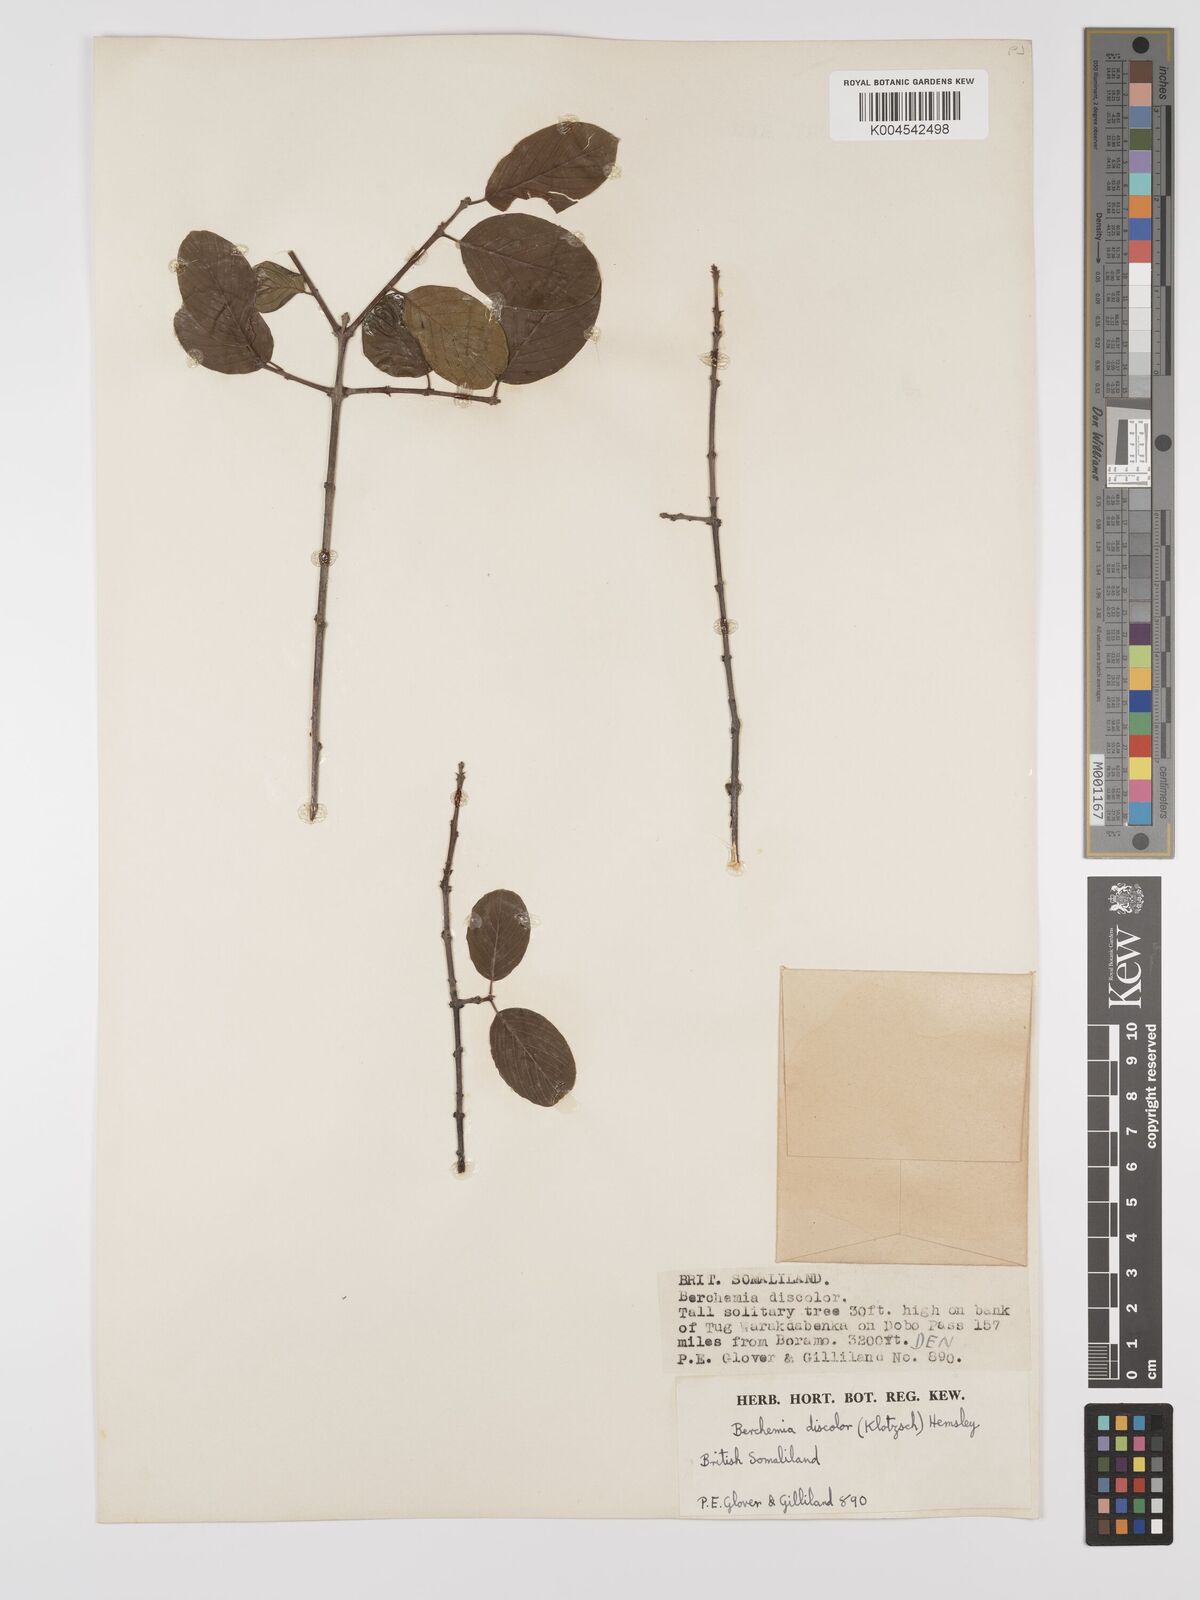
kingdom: Plantae
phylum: Tracheophyta
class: Magnoliopsida
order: Rosales
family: Rhamnaceae
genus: Phyllogeiton
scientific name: Phyllogeiton discolor
